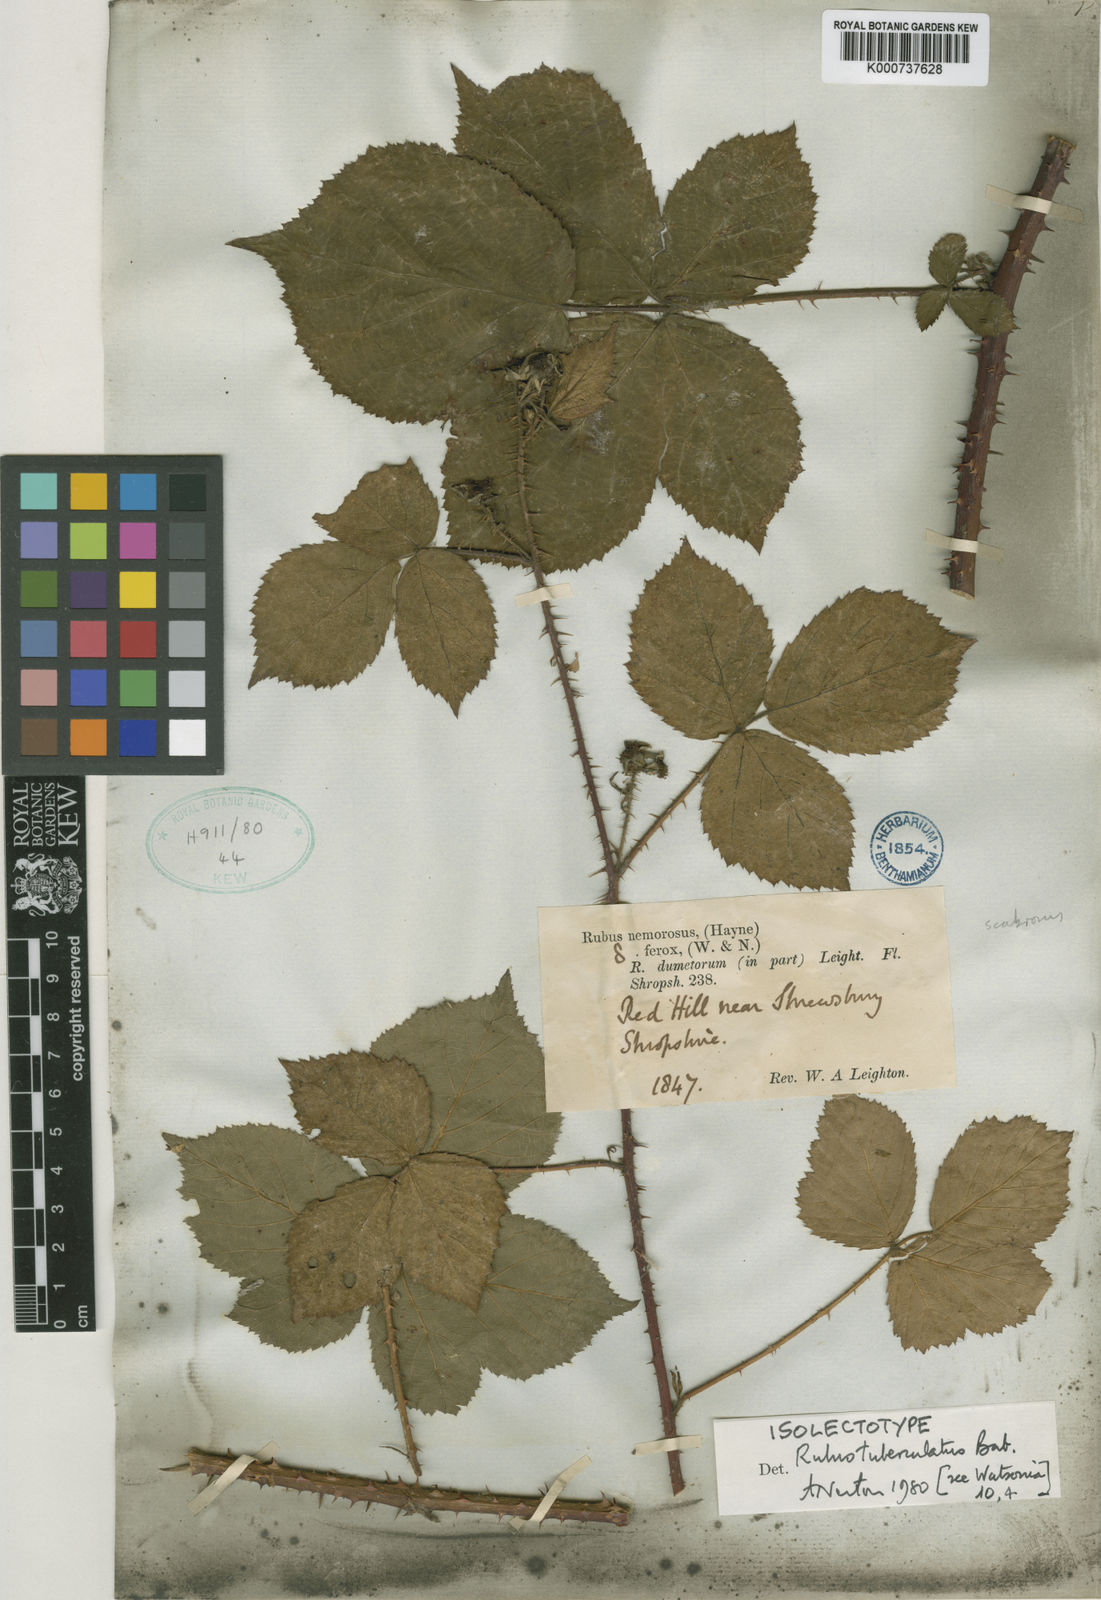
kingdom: Plantae
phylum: Tracheophyta
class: Magnoliopsida
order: Rosales
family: Rosaceae
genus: Rubus
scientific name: Rubus horrefactus
